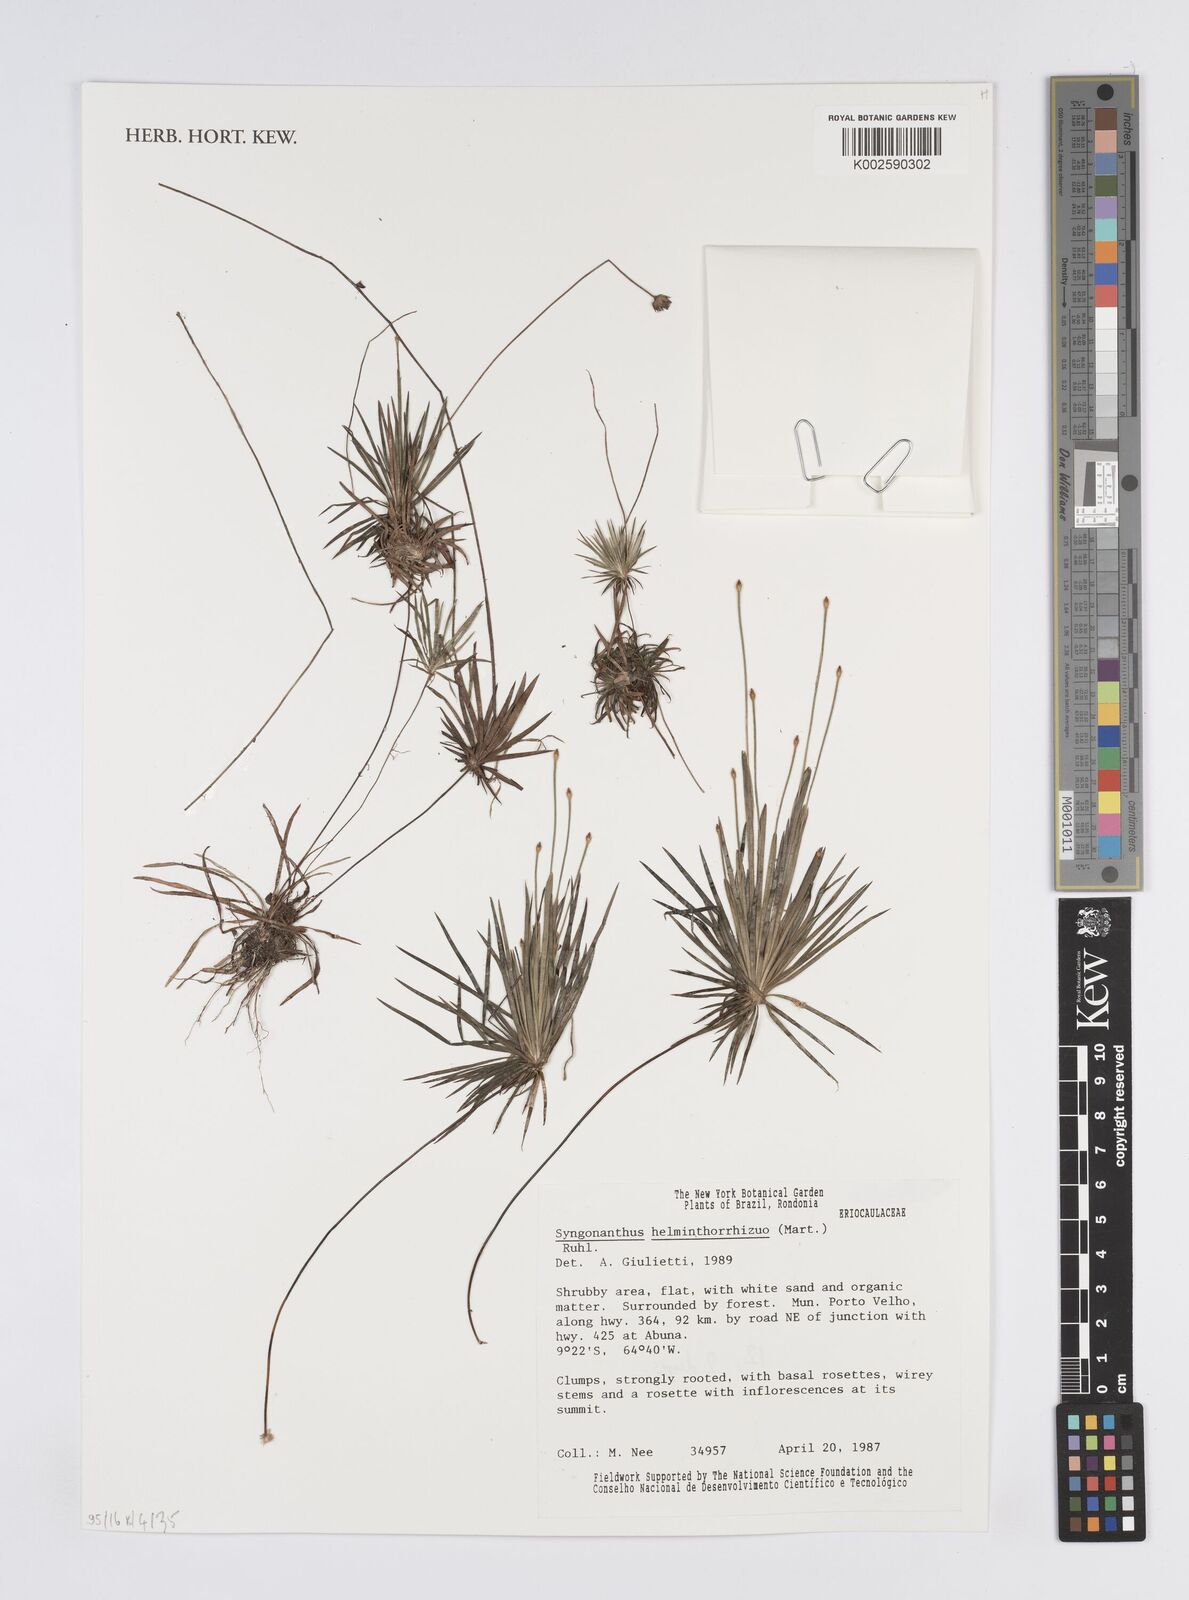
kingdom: Plantae
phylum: Tracheophyta
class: Liliopsida
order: Poales
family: Eriocaulaceae
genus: Syngonanthus
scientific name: Syngonanthus helminthorrhizus
